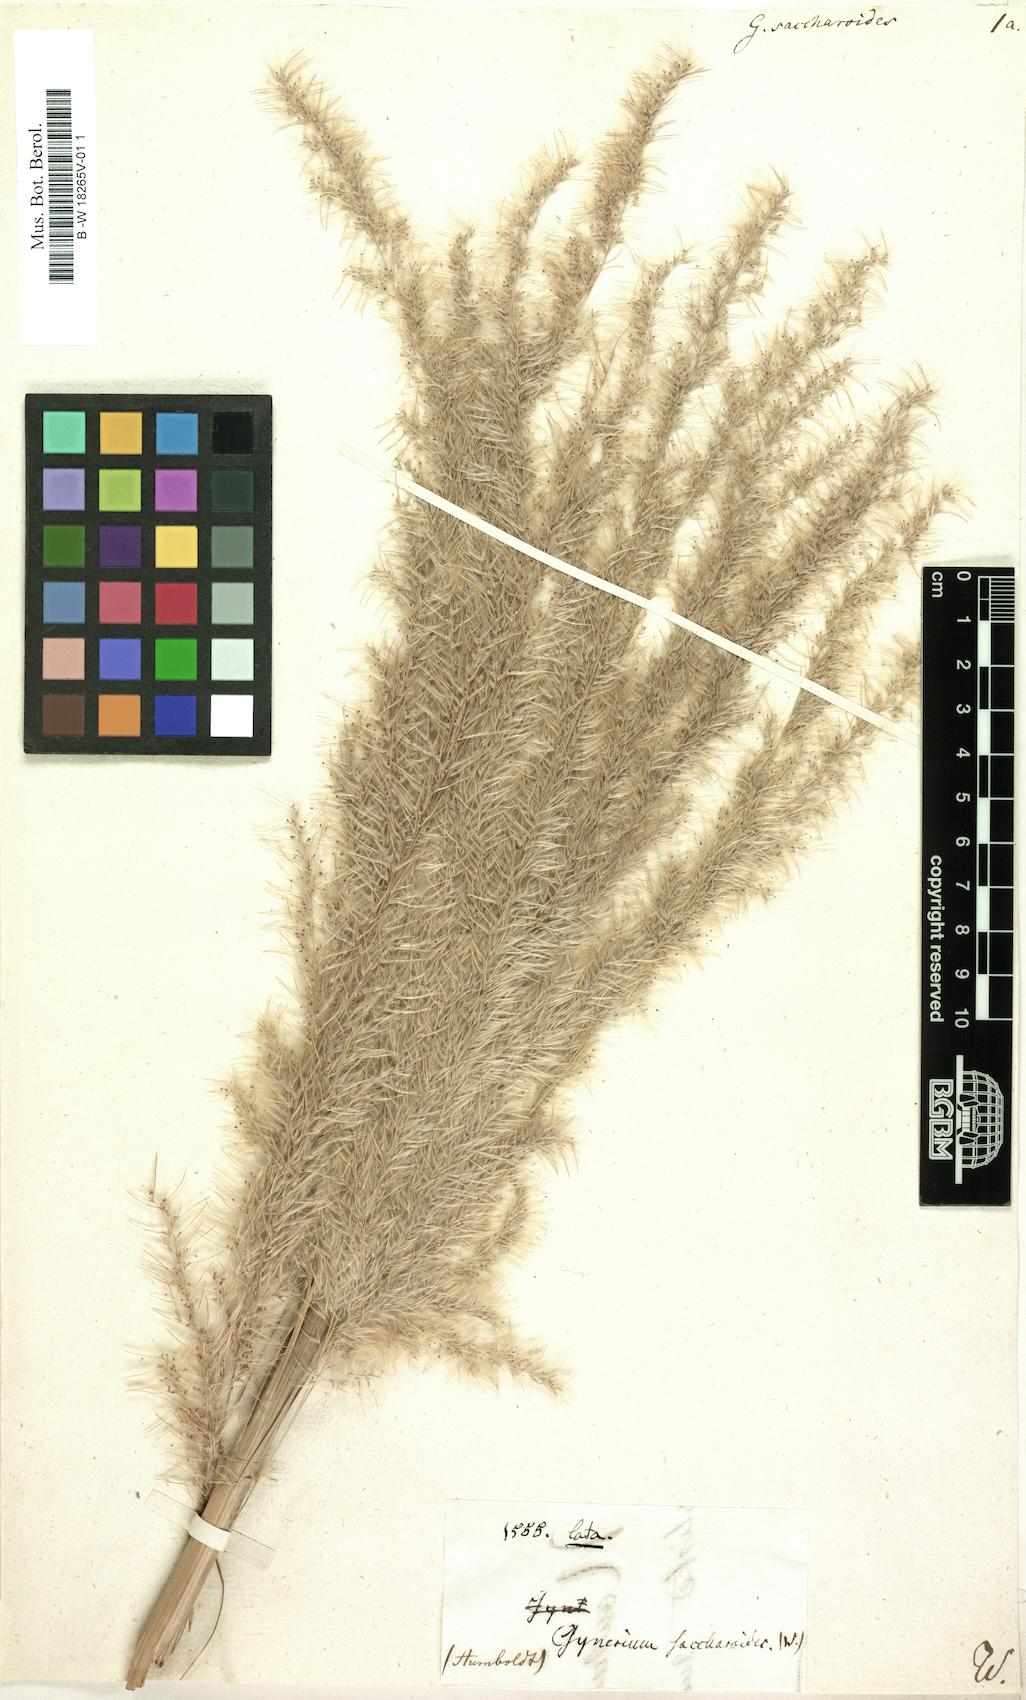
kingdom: Plantae
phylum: Tracheophyta
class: Liliopsida
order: Poales
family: Poaceae
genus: Gynerium
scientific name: Gynerium sagittatum
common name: Wild cane
